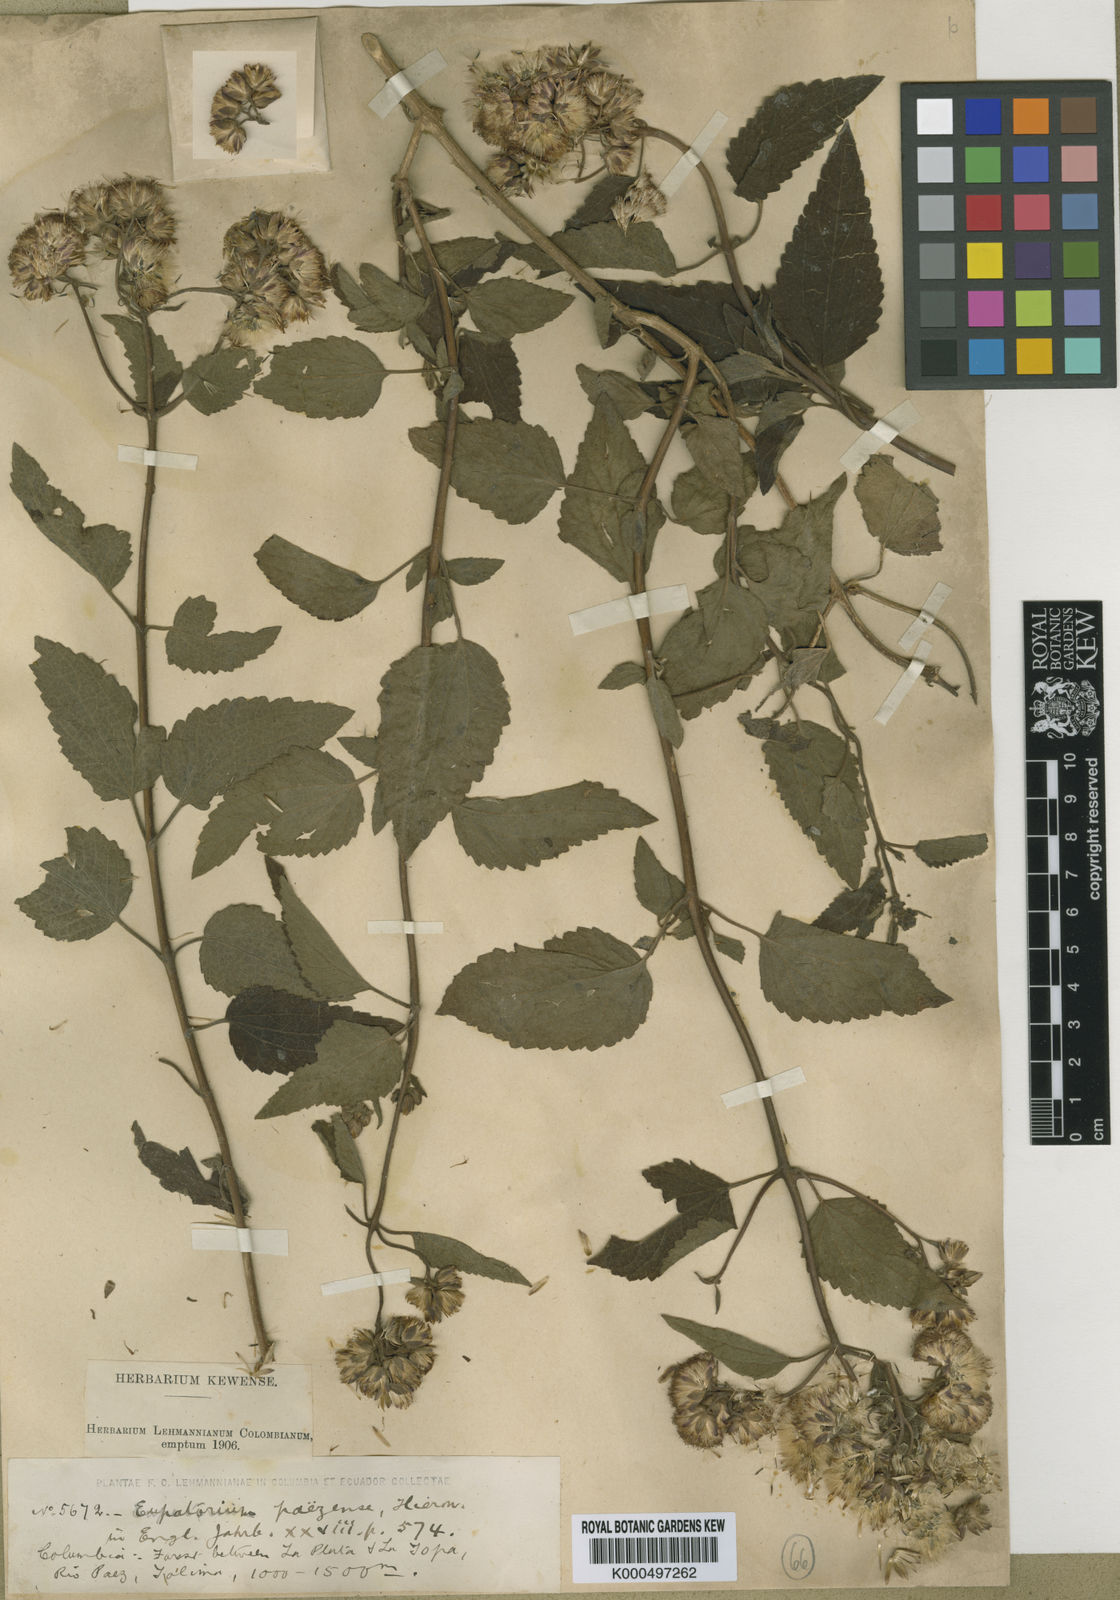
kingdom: Plantae
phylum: Tracheophyta
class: Magnoliopsida
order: Asterales
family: Asteraceae
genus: Bartlettina
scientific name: Bartlettina paezensis
